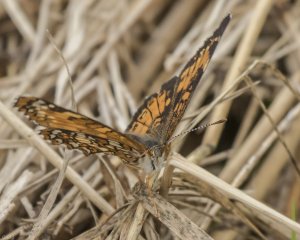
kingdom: Animalia
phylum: Arthropoda
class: Insecta
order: Lepidoptera
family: Nymphalidae
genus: Chlosyne
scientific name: Chlosyne harrisii
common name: Harris's Checkerspot
